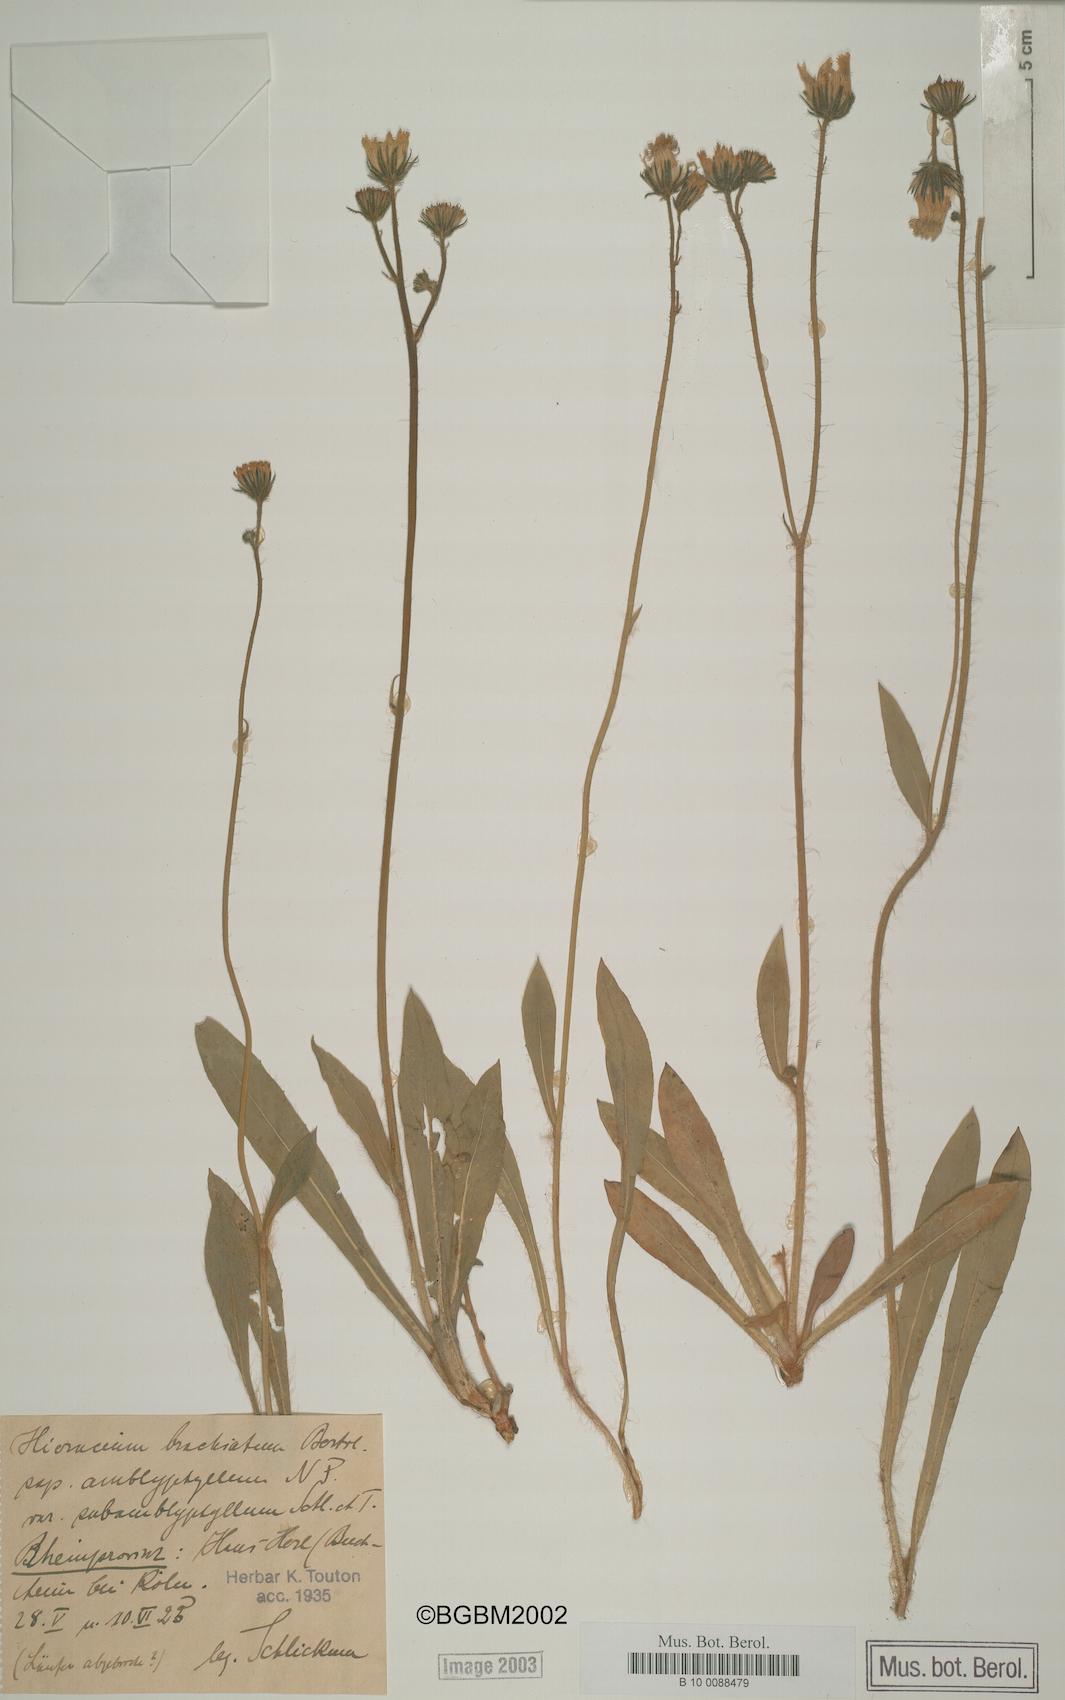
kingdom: Plantae
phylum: Tracheophyta
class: Magnoliopsida
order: Asterales
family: Asteraceae
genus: Pilosella
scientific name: Pilosella acutifolia
